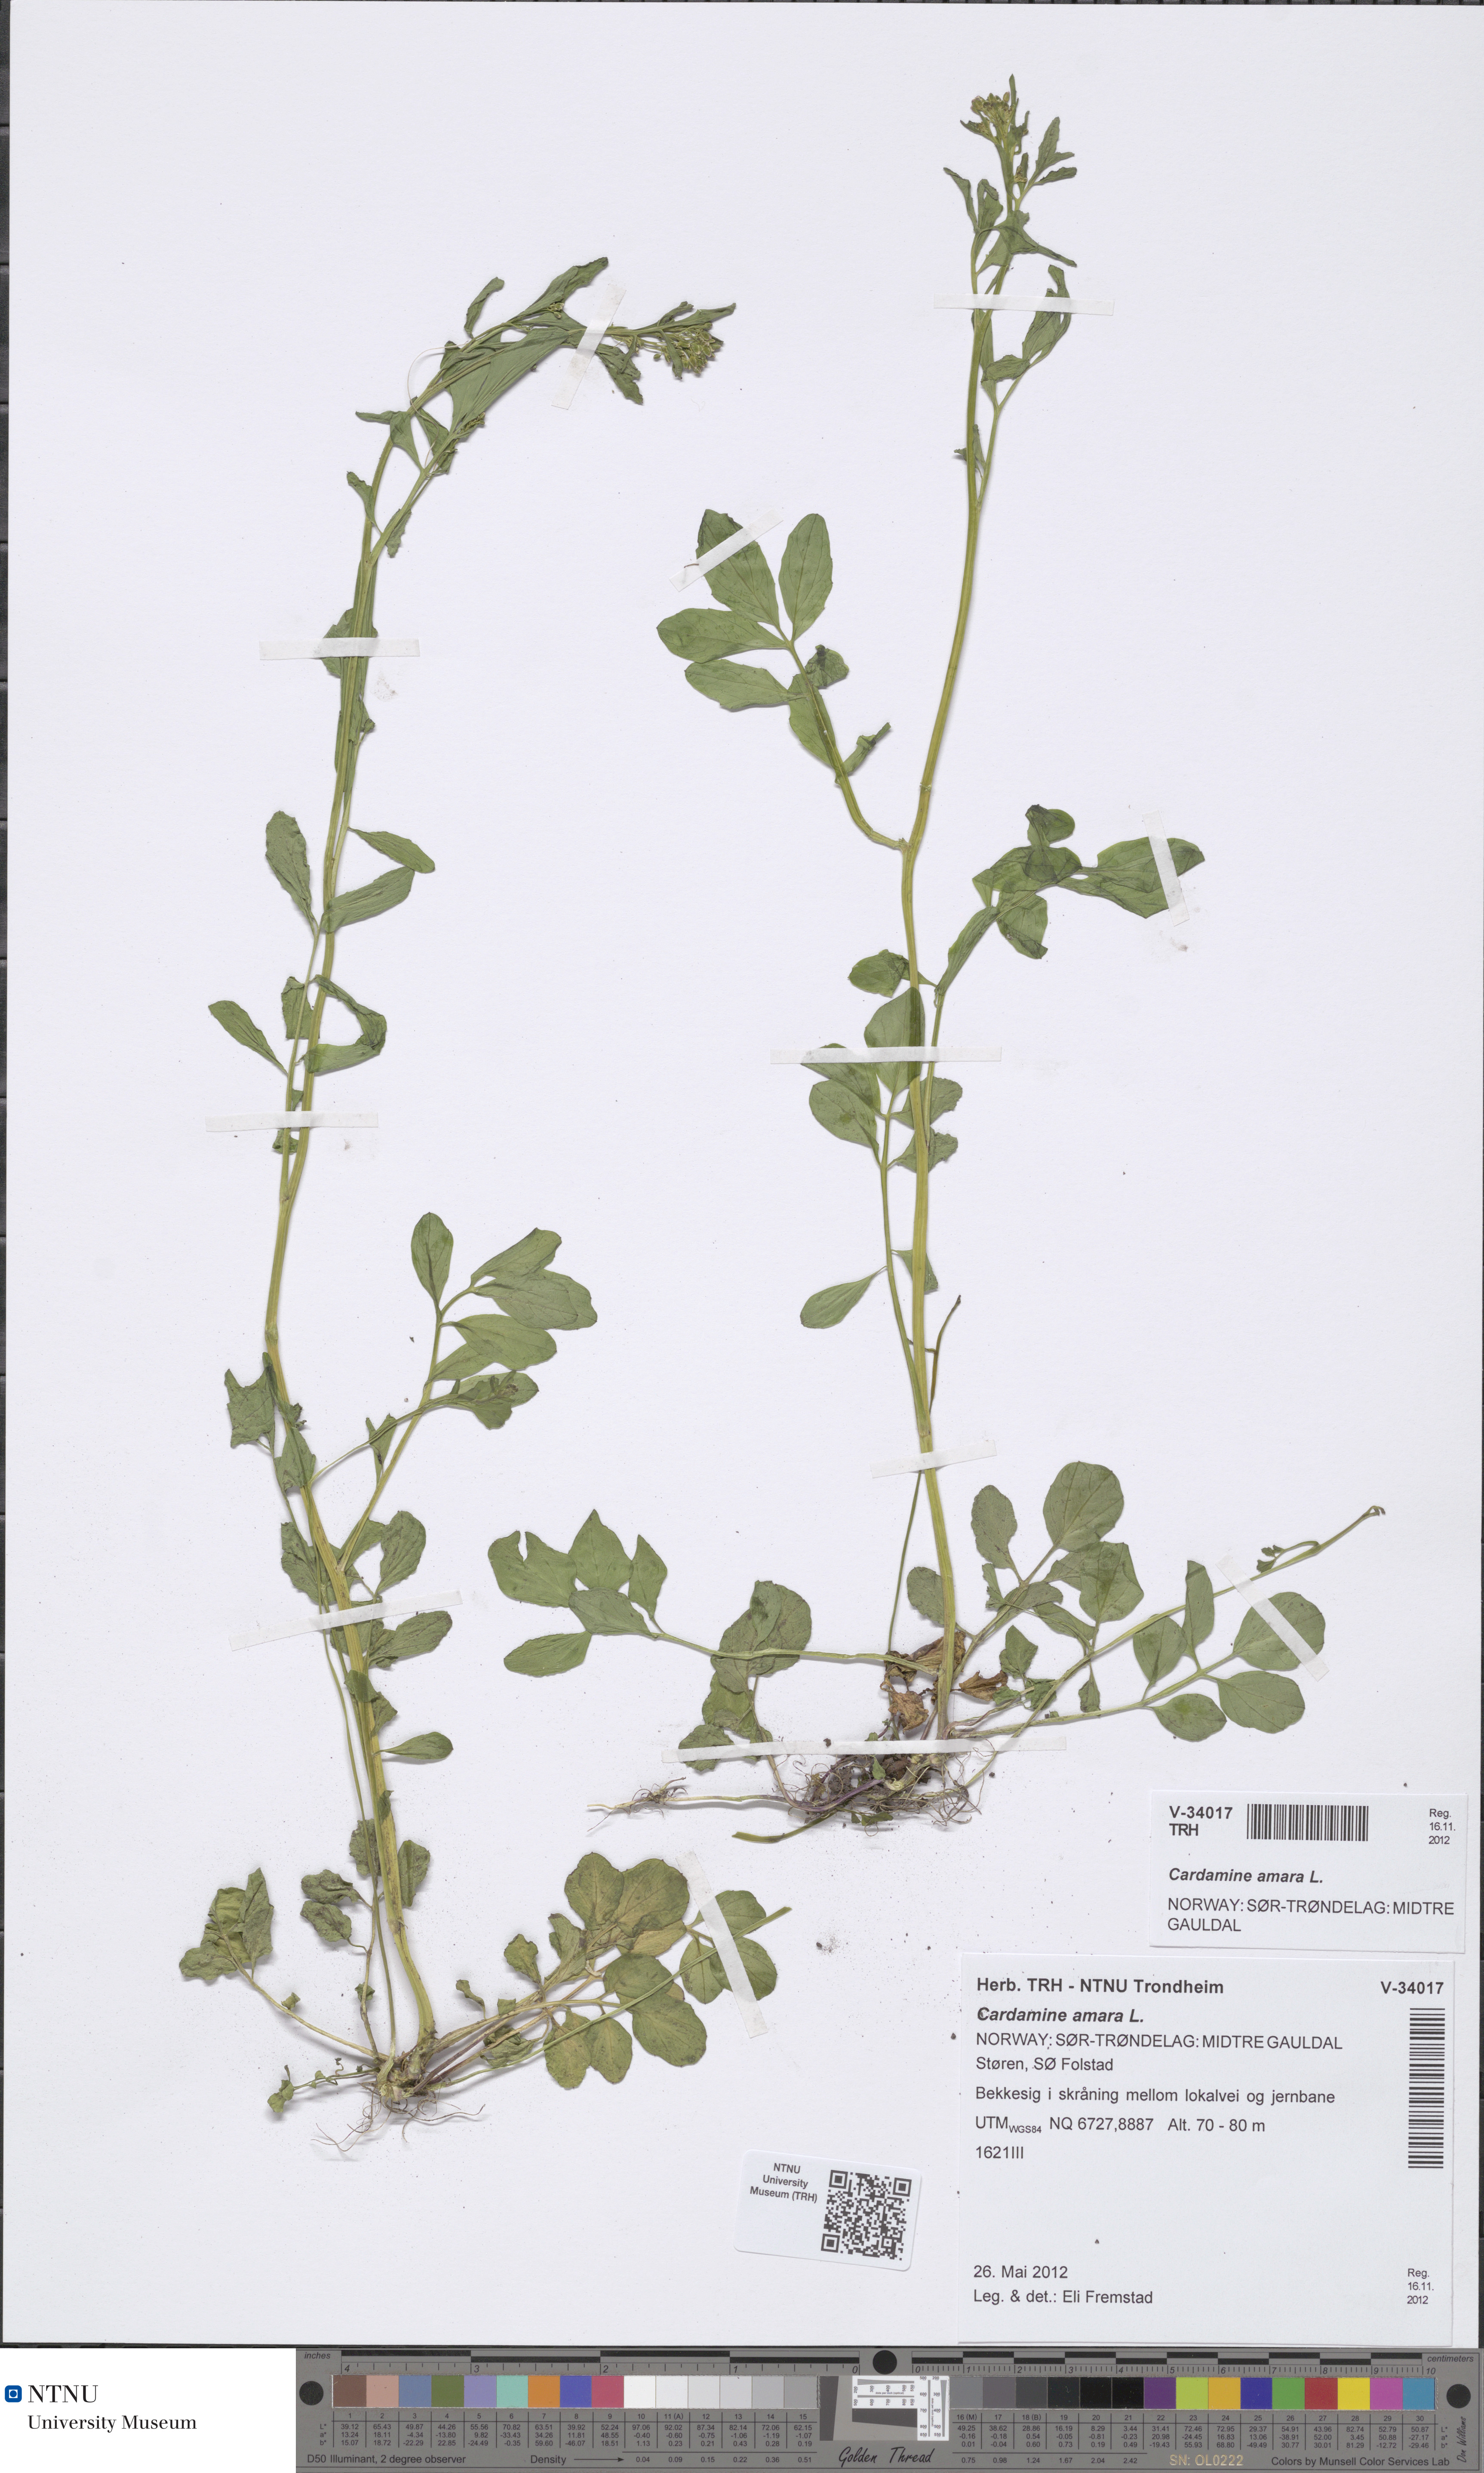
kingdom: Plantae
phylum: Tracheophyta
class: Magnoliopsida
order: Brassicales
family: Brassicaceae
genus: Cardamine
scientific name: Cardamine amara
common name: Large bitter-cress
